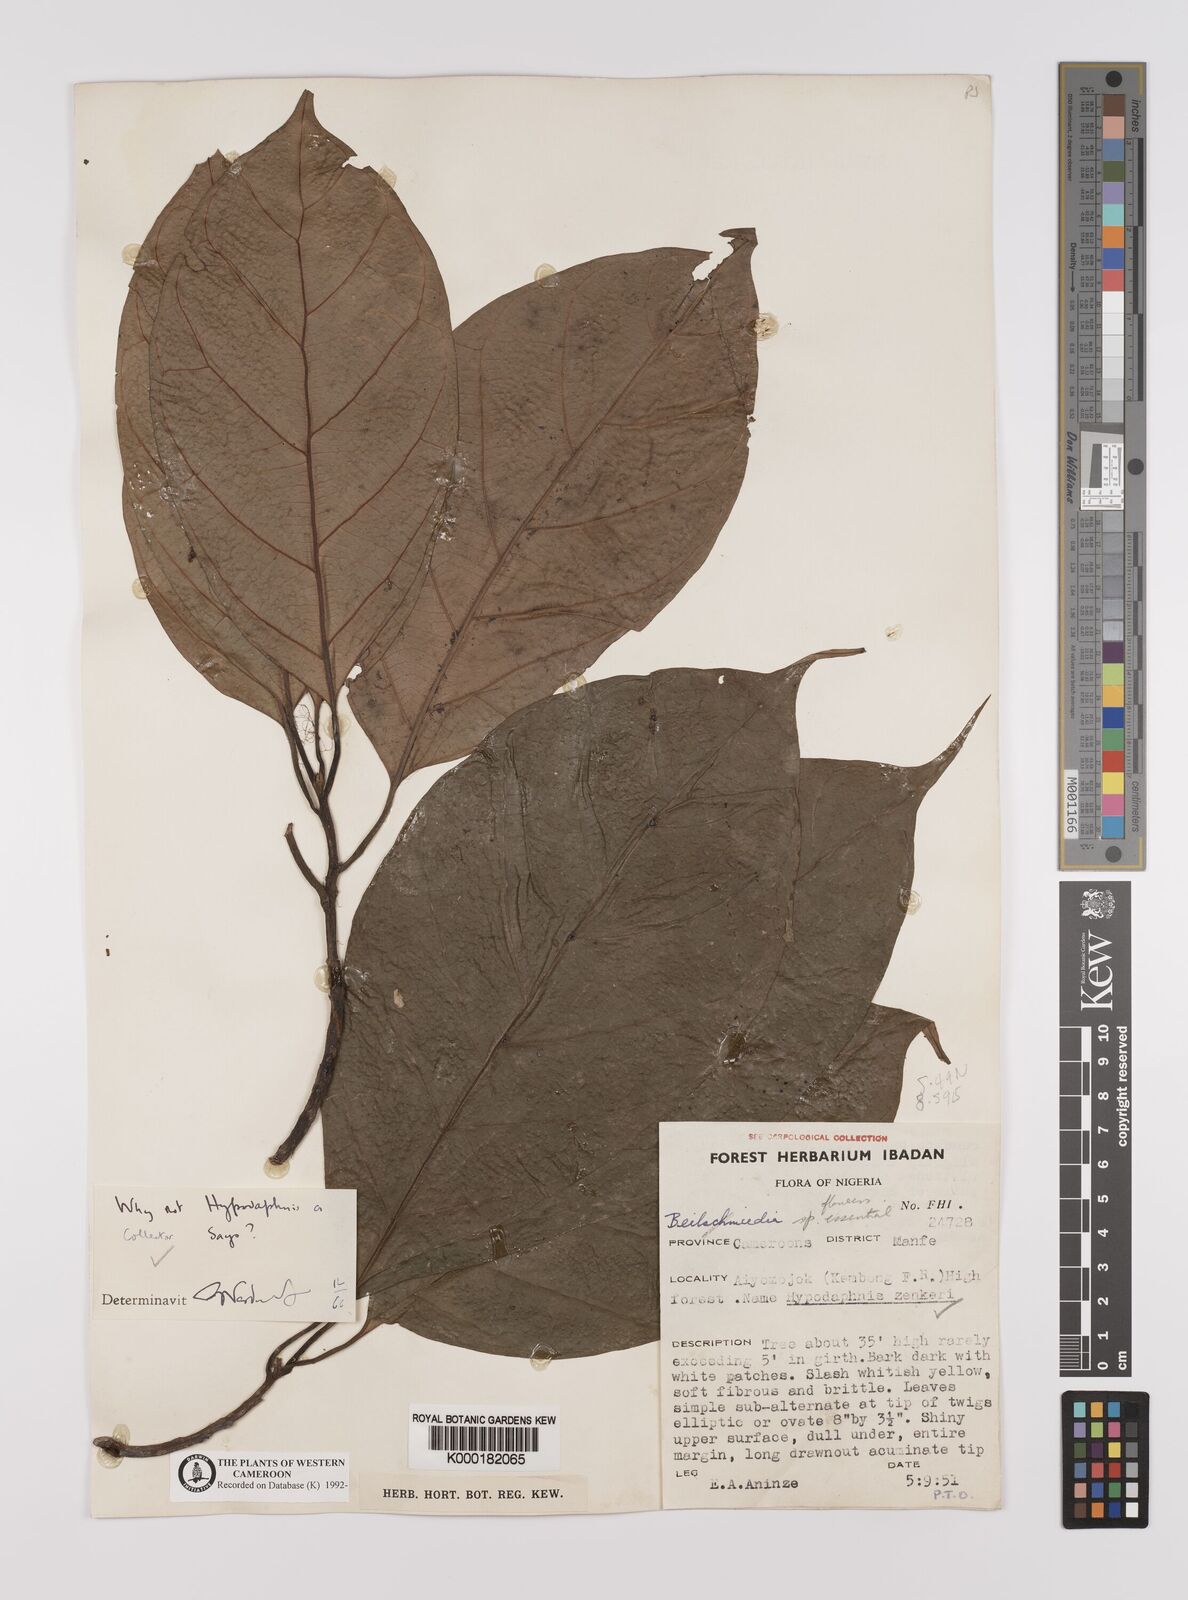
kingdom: Plantae
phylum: Tracheophyta
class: Magnoliopsida
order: Laurales
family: Lauraceae
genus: Hypodaphnis
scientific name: Hypodaphnis zenkeri
